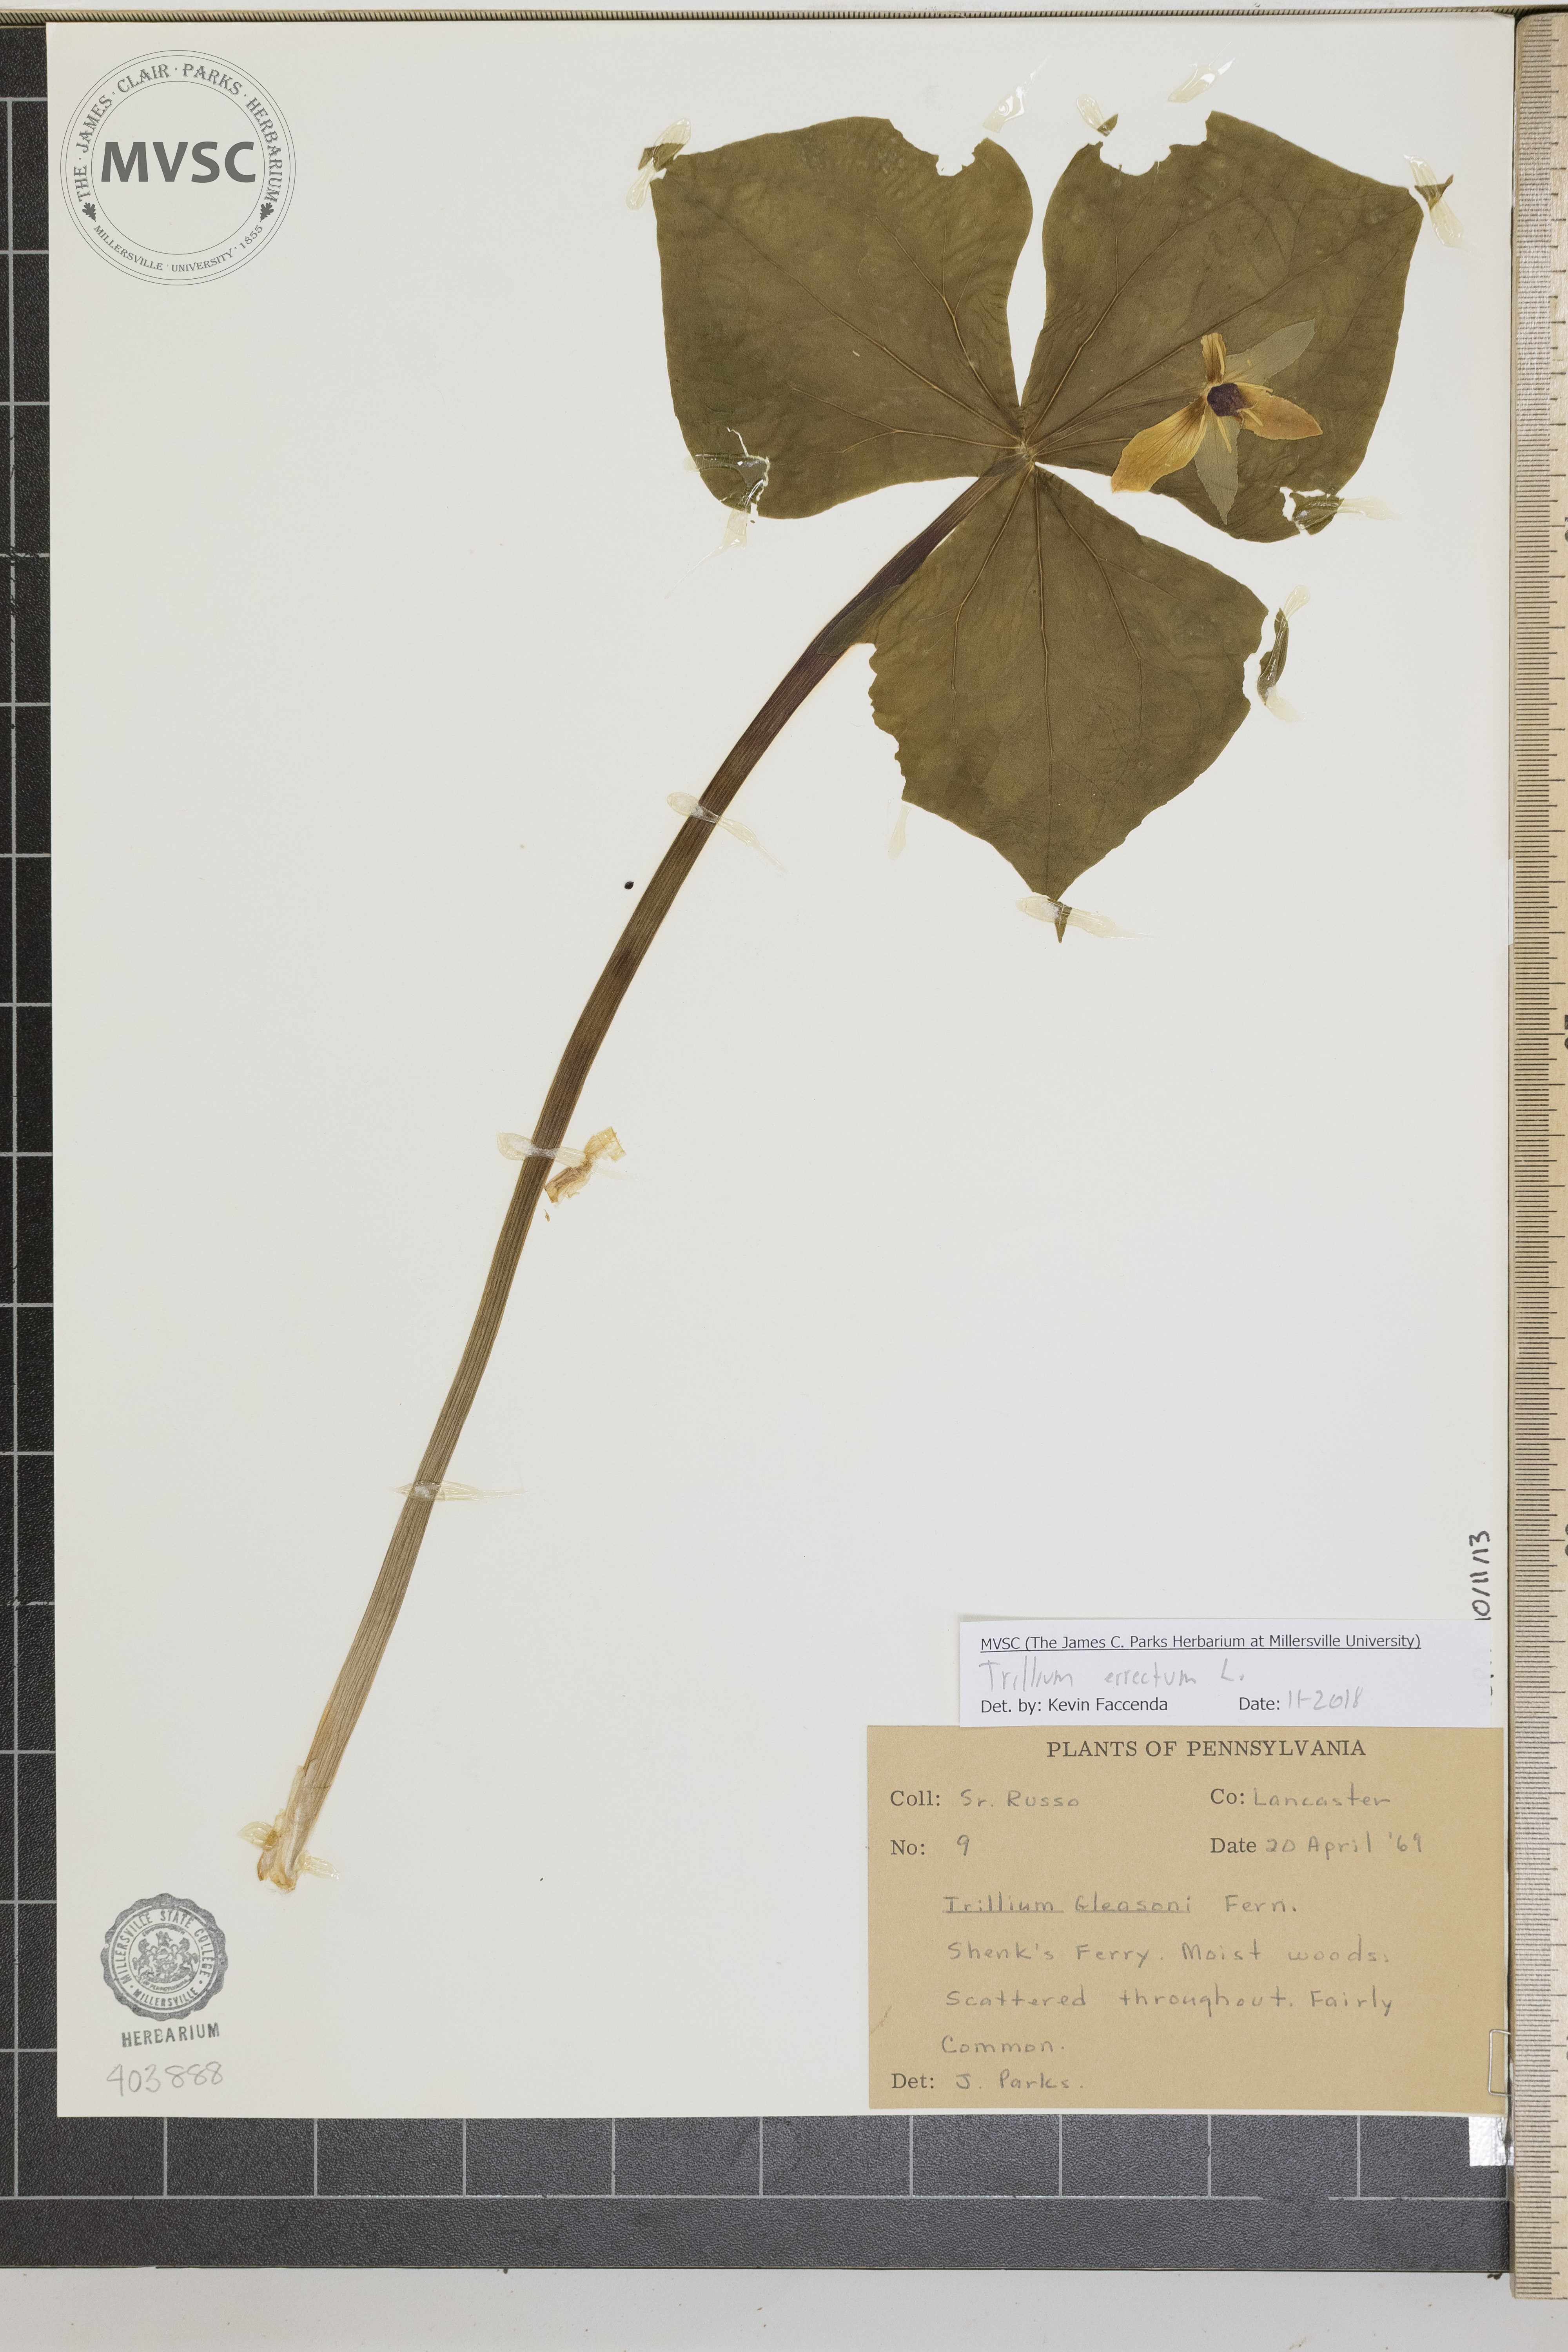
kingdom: Plantae
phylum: Tracheophyta
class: Liliopsida
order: Liliales
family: Melanthiaceae
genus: Trillium
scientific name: Trillium erectum
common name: Purple trillium
